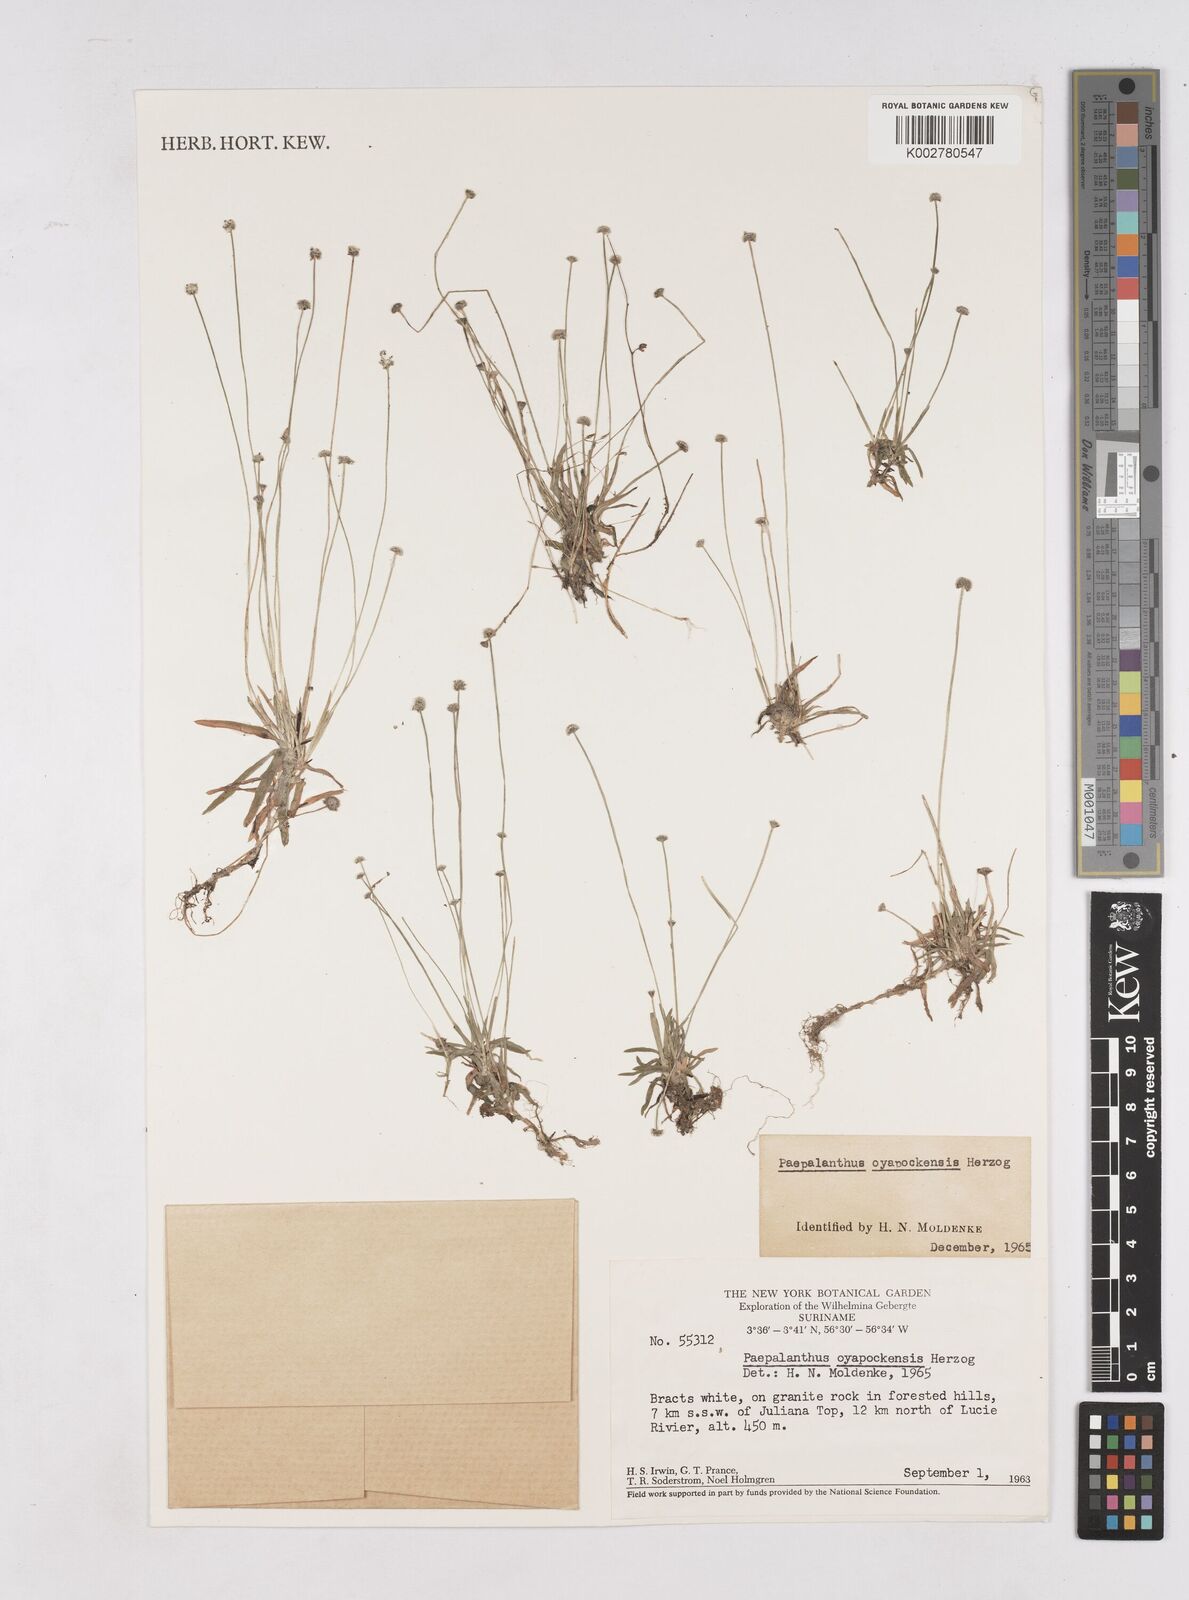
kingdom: Plantae
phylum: Tracheophyta
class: Liliopsida
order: Poales
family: Eriocaulaceae
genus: Paepalanthus
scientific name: Paepalanthus oyapockensis
